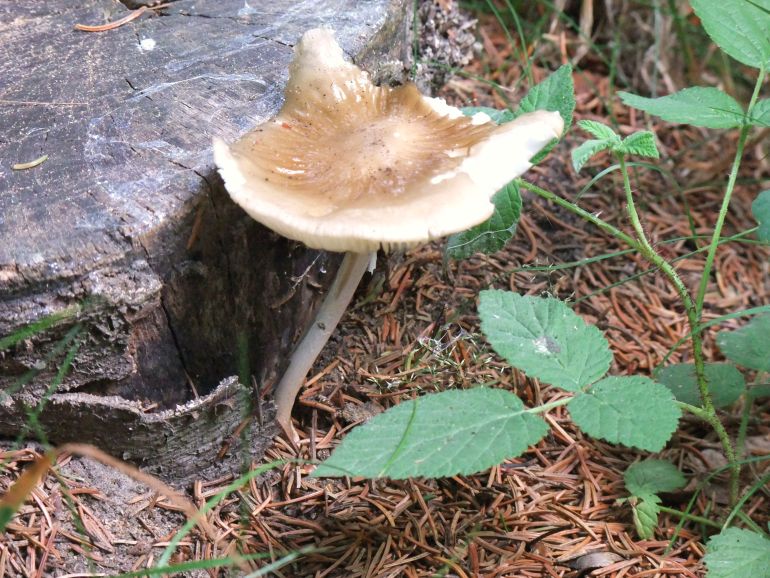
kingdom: Fungi
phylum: Basidiomycota
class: Agaricomycetes
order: Agaricales
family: Physalacriaceae
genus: Hymenopellis
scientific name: Hymenopellis radicata
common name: almindelig pælerodshat
